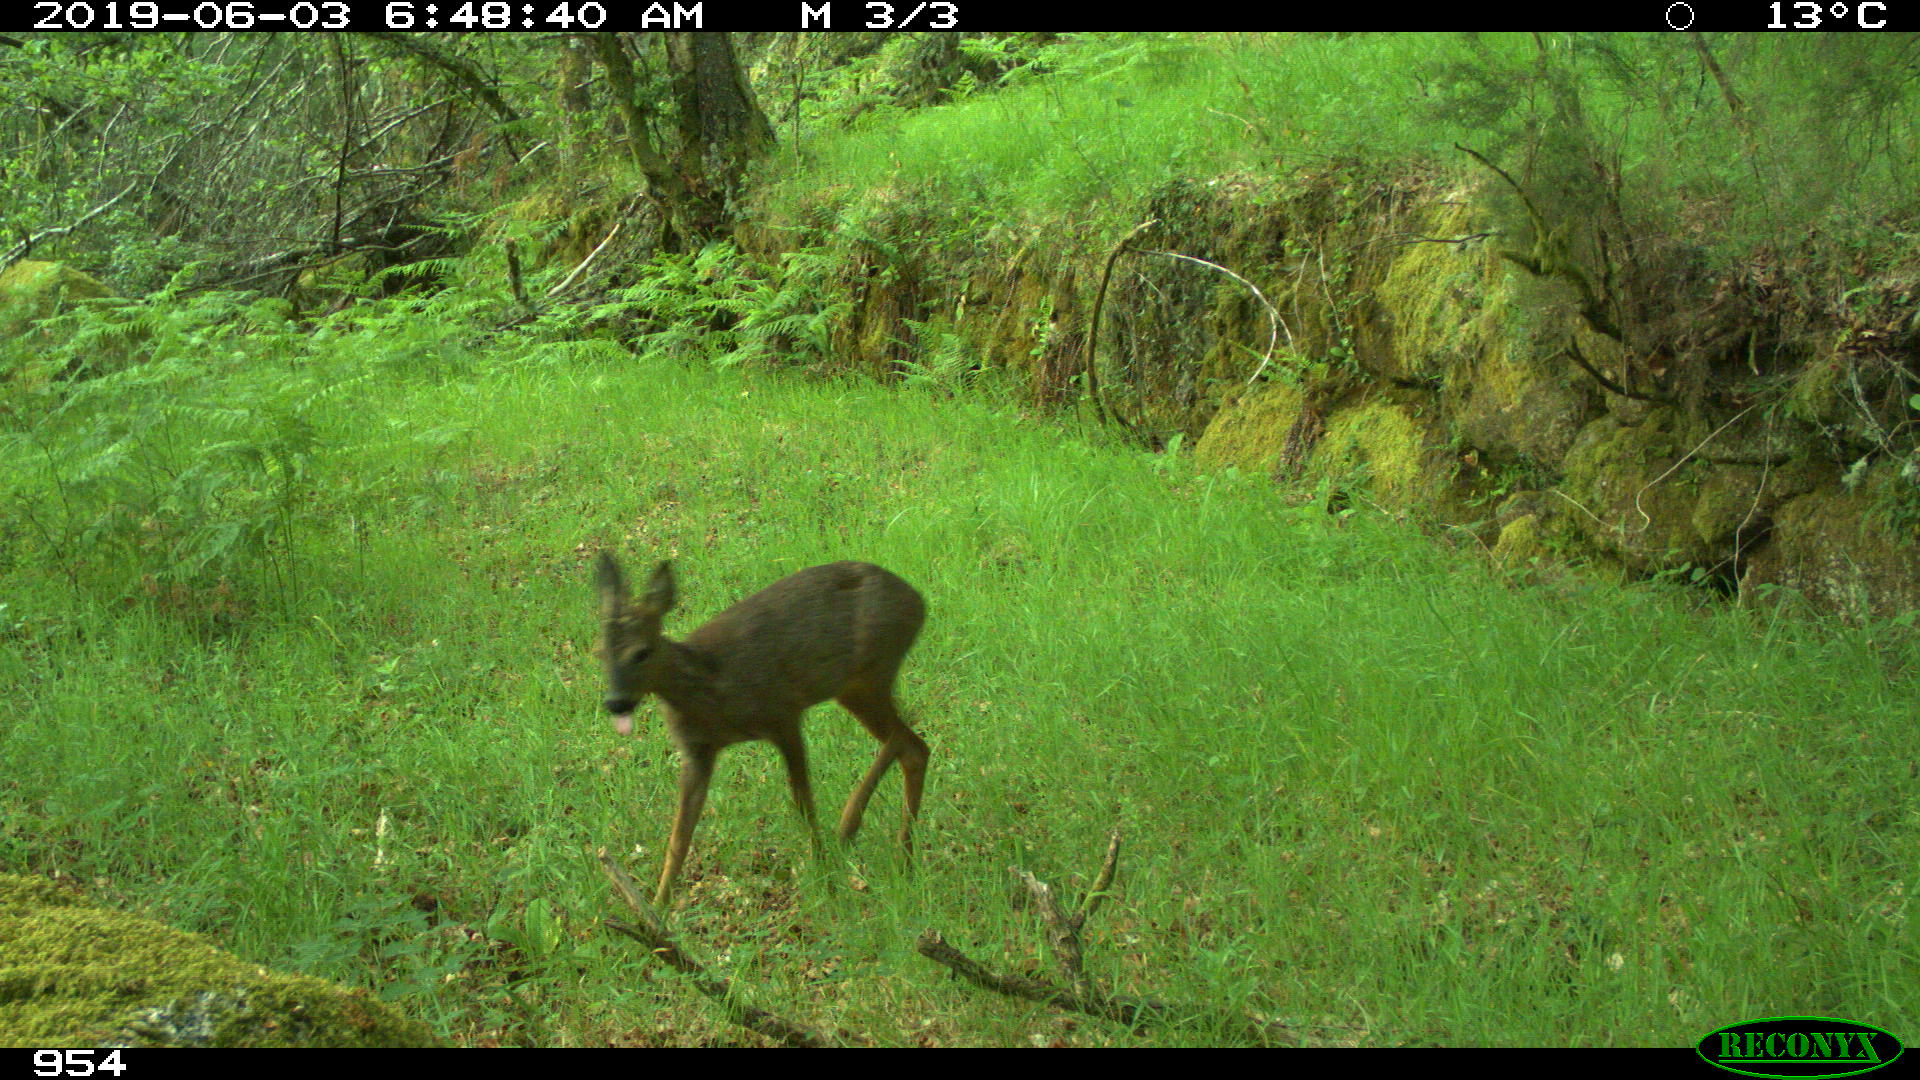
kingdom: Animalia
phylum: Chordata
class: Mammalia
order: Artiodactyla
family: Cervidae
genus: Capreolus
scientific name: Capreolus capreolus
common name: Western roe deer
